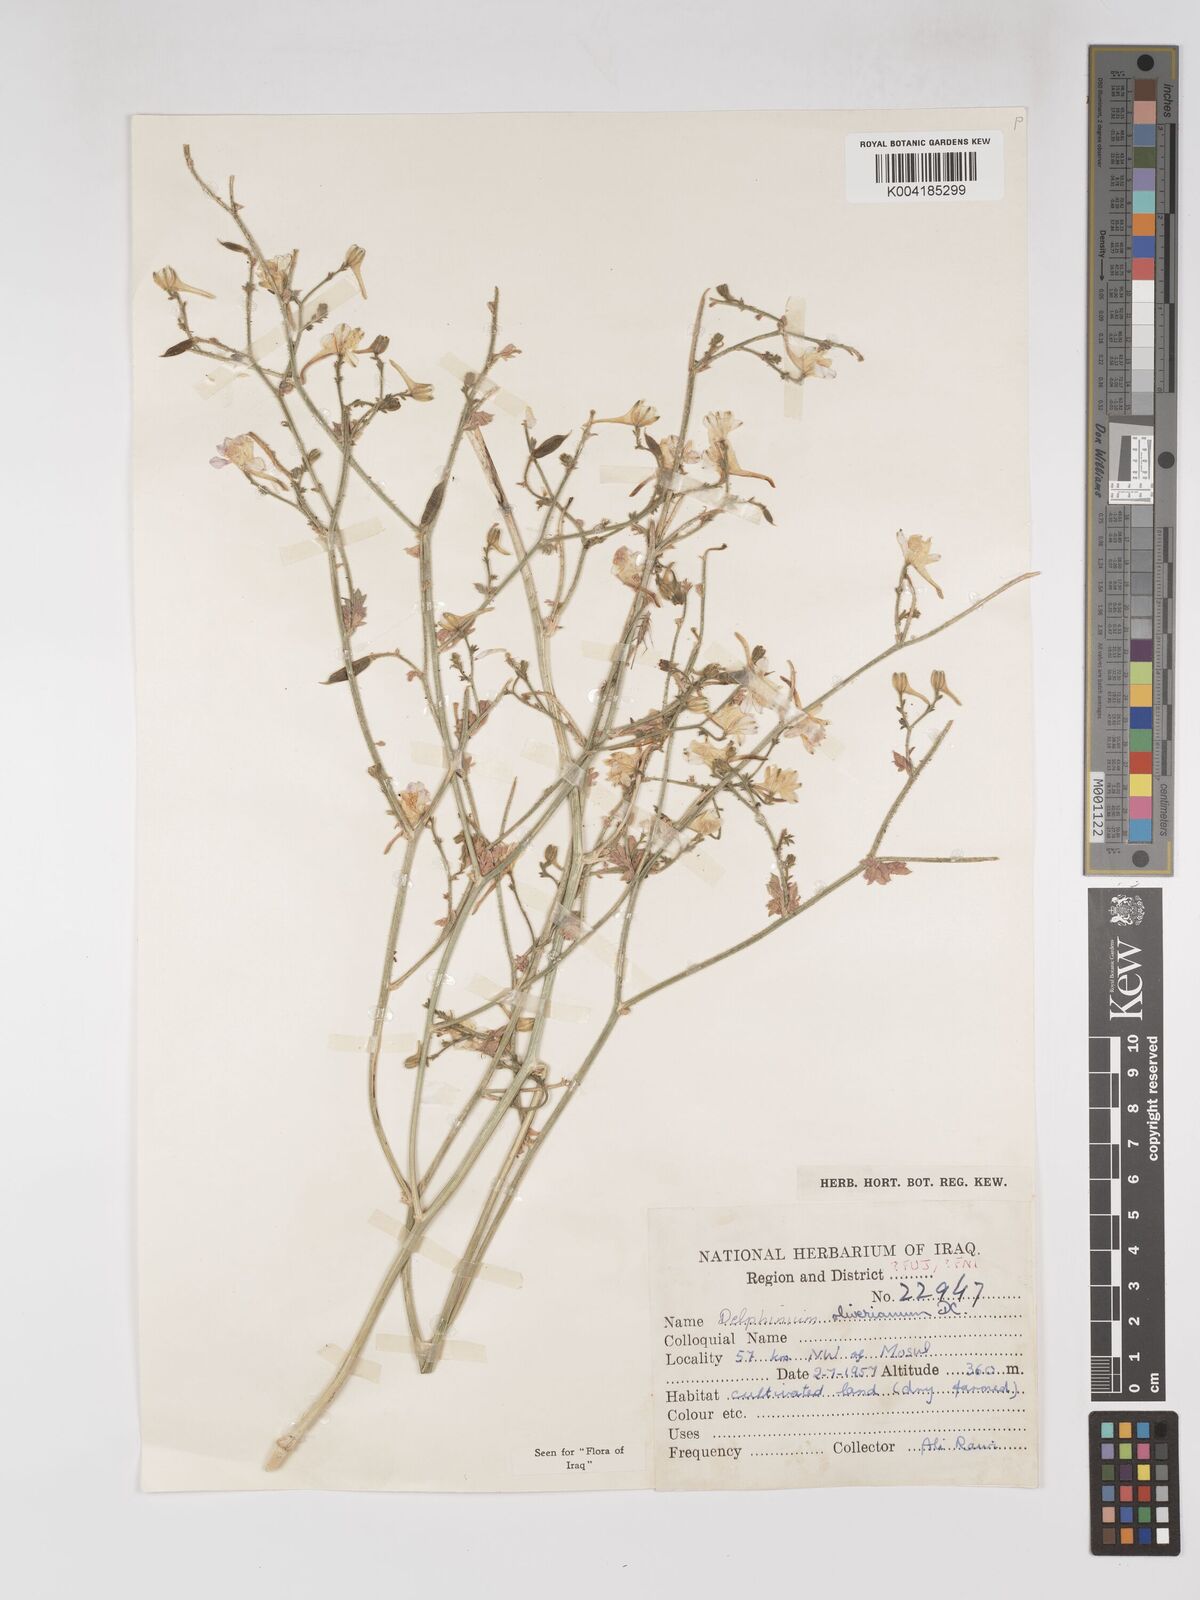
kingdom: Plantae
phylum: Tracheophyta
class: Magnoliopsida
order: Ranunculales
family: Ranunculaceae
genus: Delphinium
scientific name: Delphinium oliverianum
